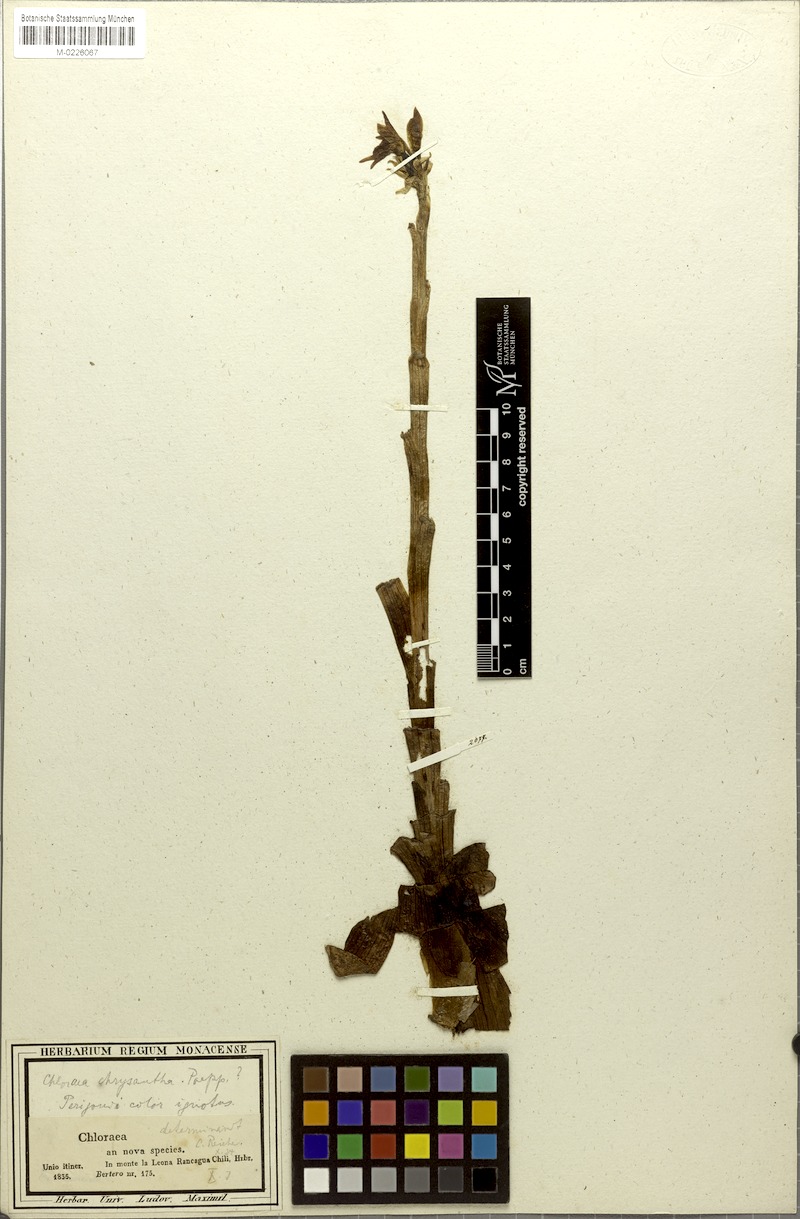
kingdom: Plantae
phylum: Tracheophyta
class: Liliopsida
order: Asparagales
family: Orchidaceae
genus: Gavilea
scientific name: Gavilea longibracteata
